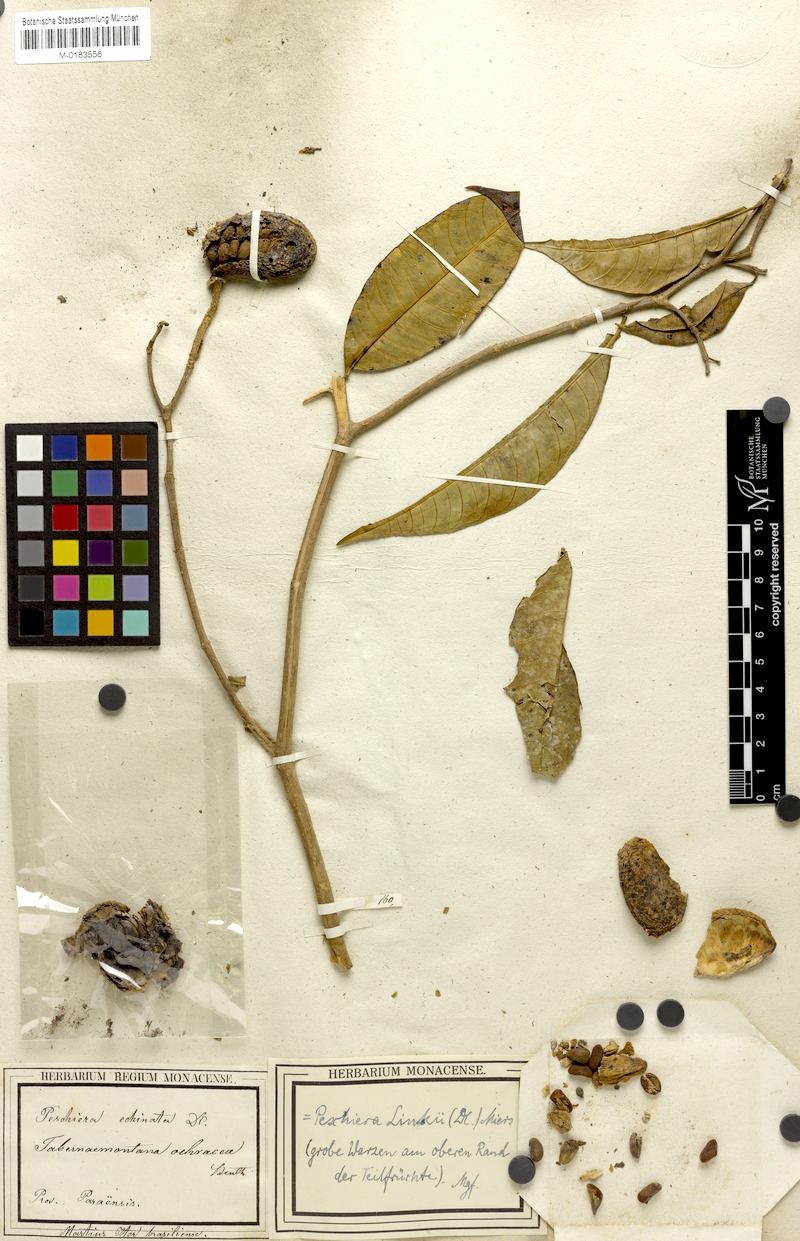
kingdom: Plantae
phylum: Tracheophyta
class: Magnoliopsida
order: Gentianales
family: Apocynaceae
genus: Tabernaemontana
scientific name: Tabernaemontana linkii
